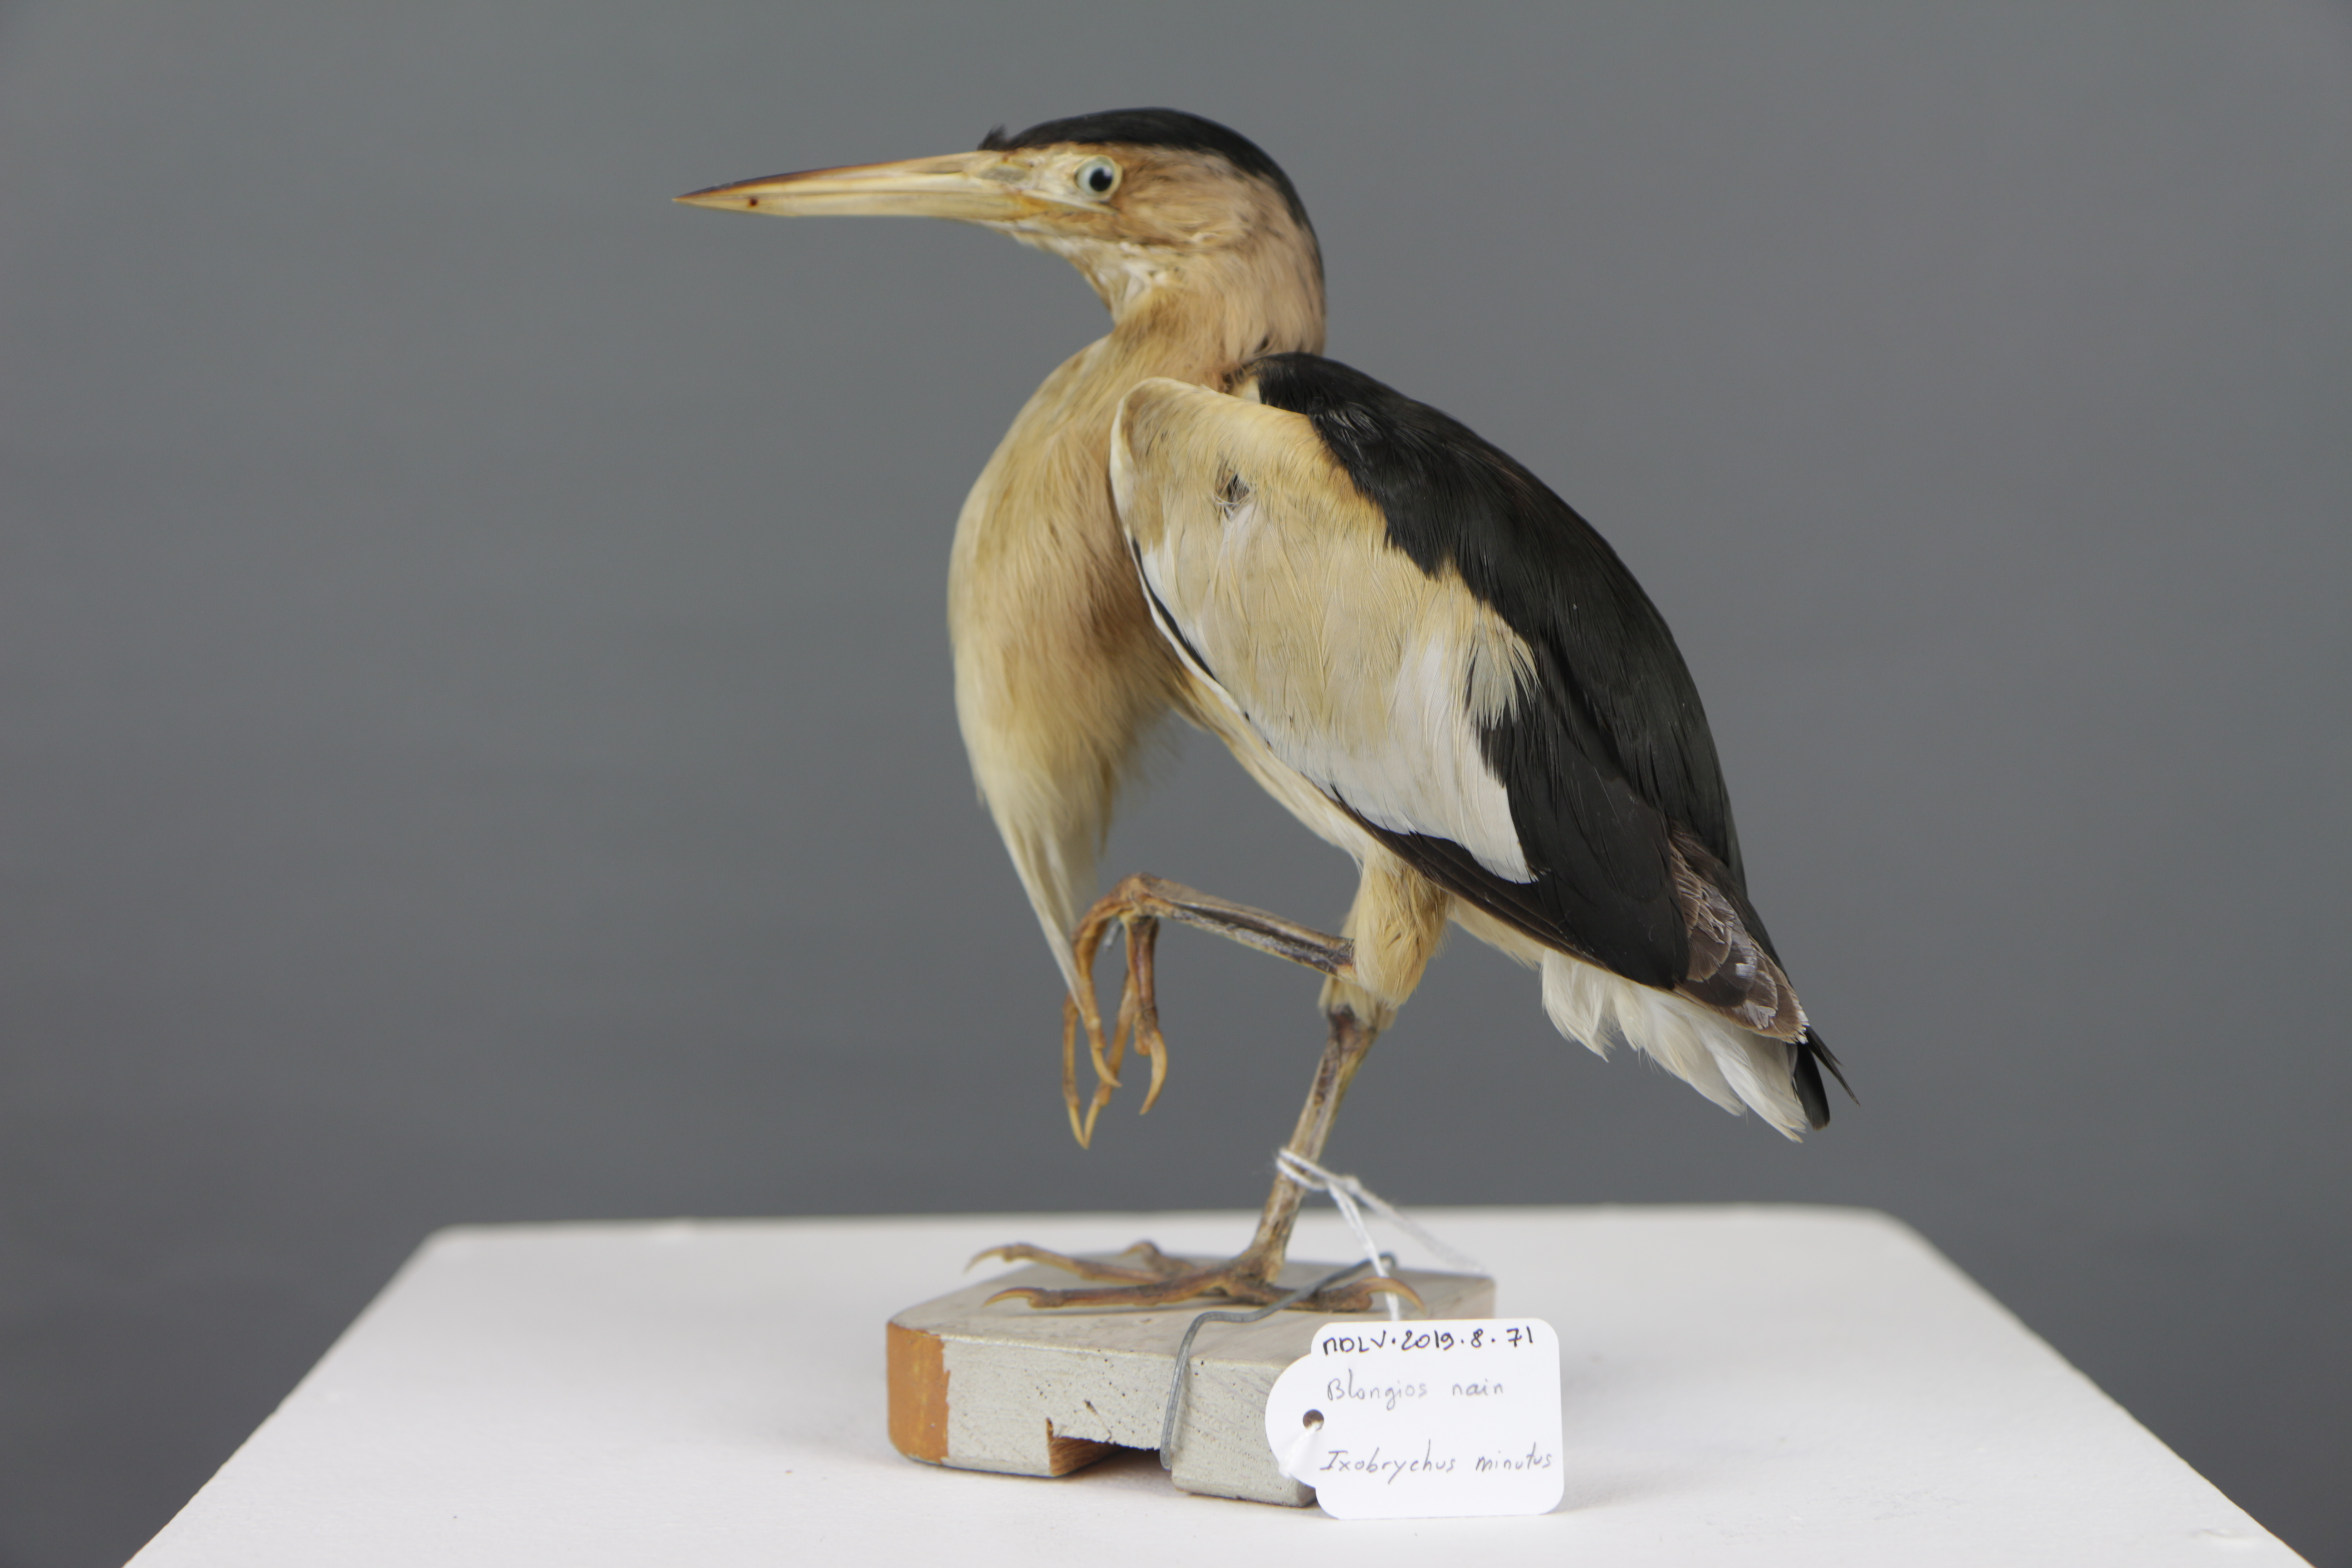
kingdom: Animalia
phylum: Chordata
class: Aves
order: Pelecaniformes
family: Ardeidae
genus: Ixobrychus
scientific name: Ixobrychus minutus
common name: Little bittern
